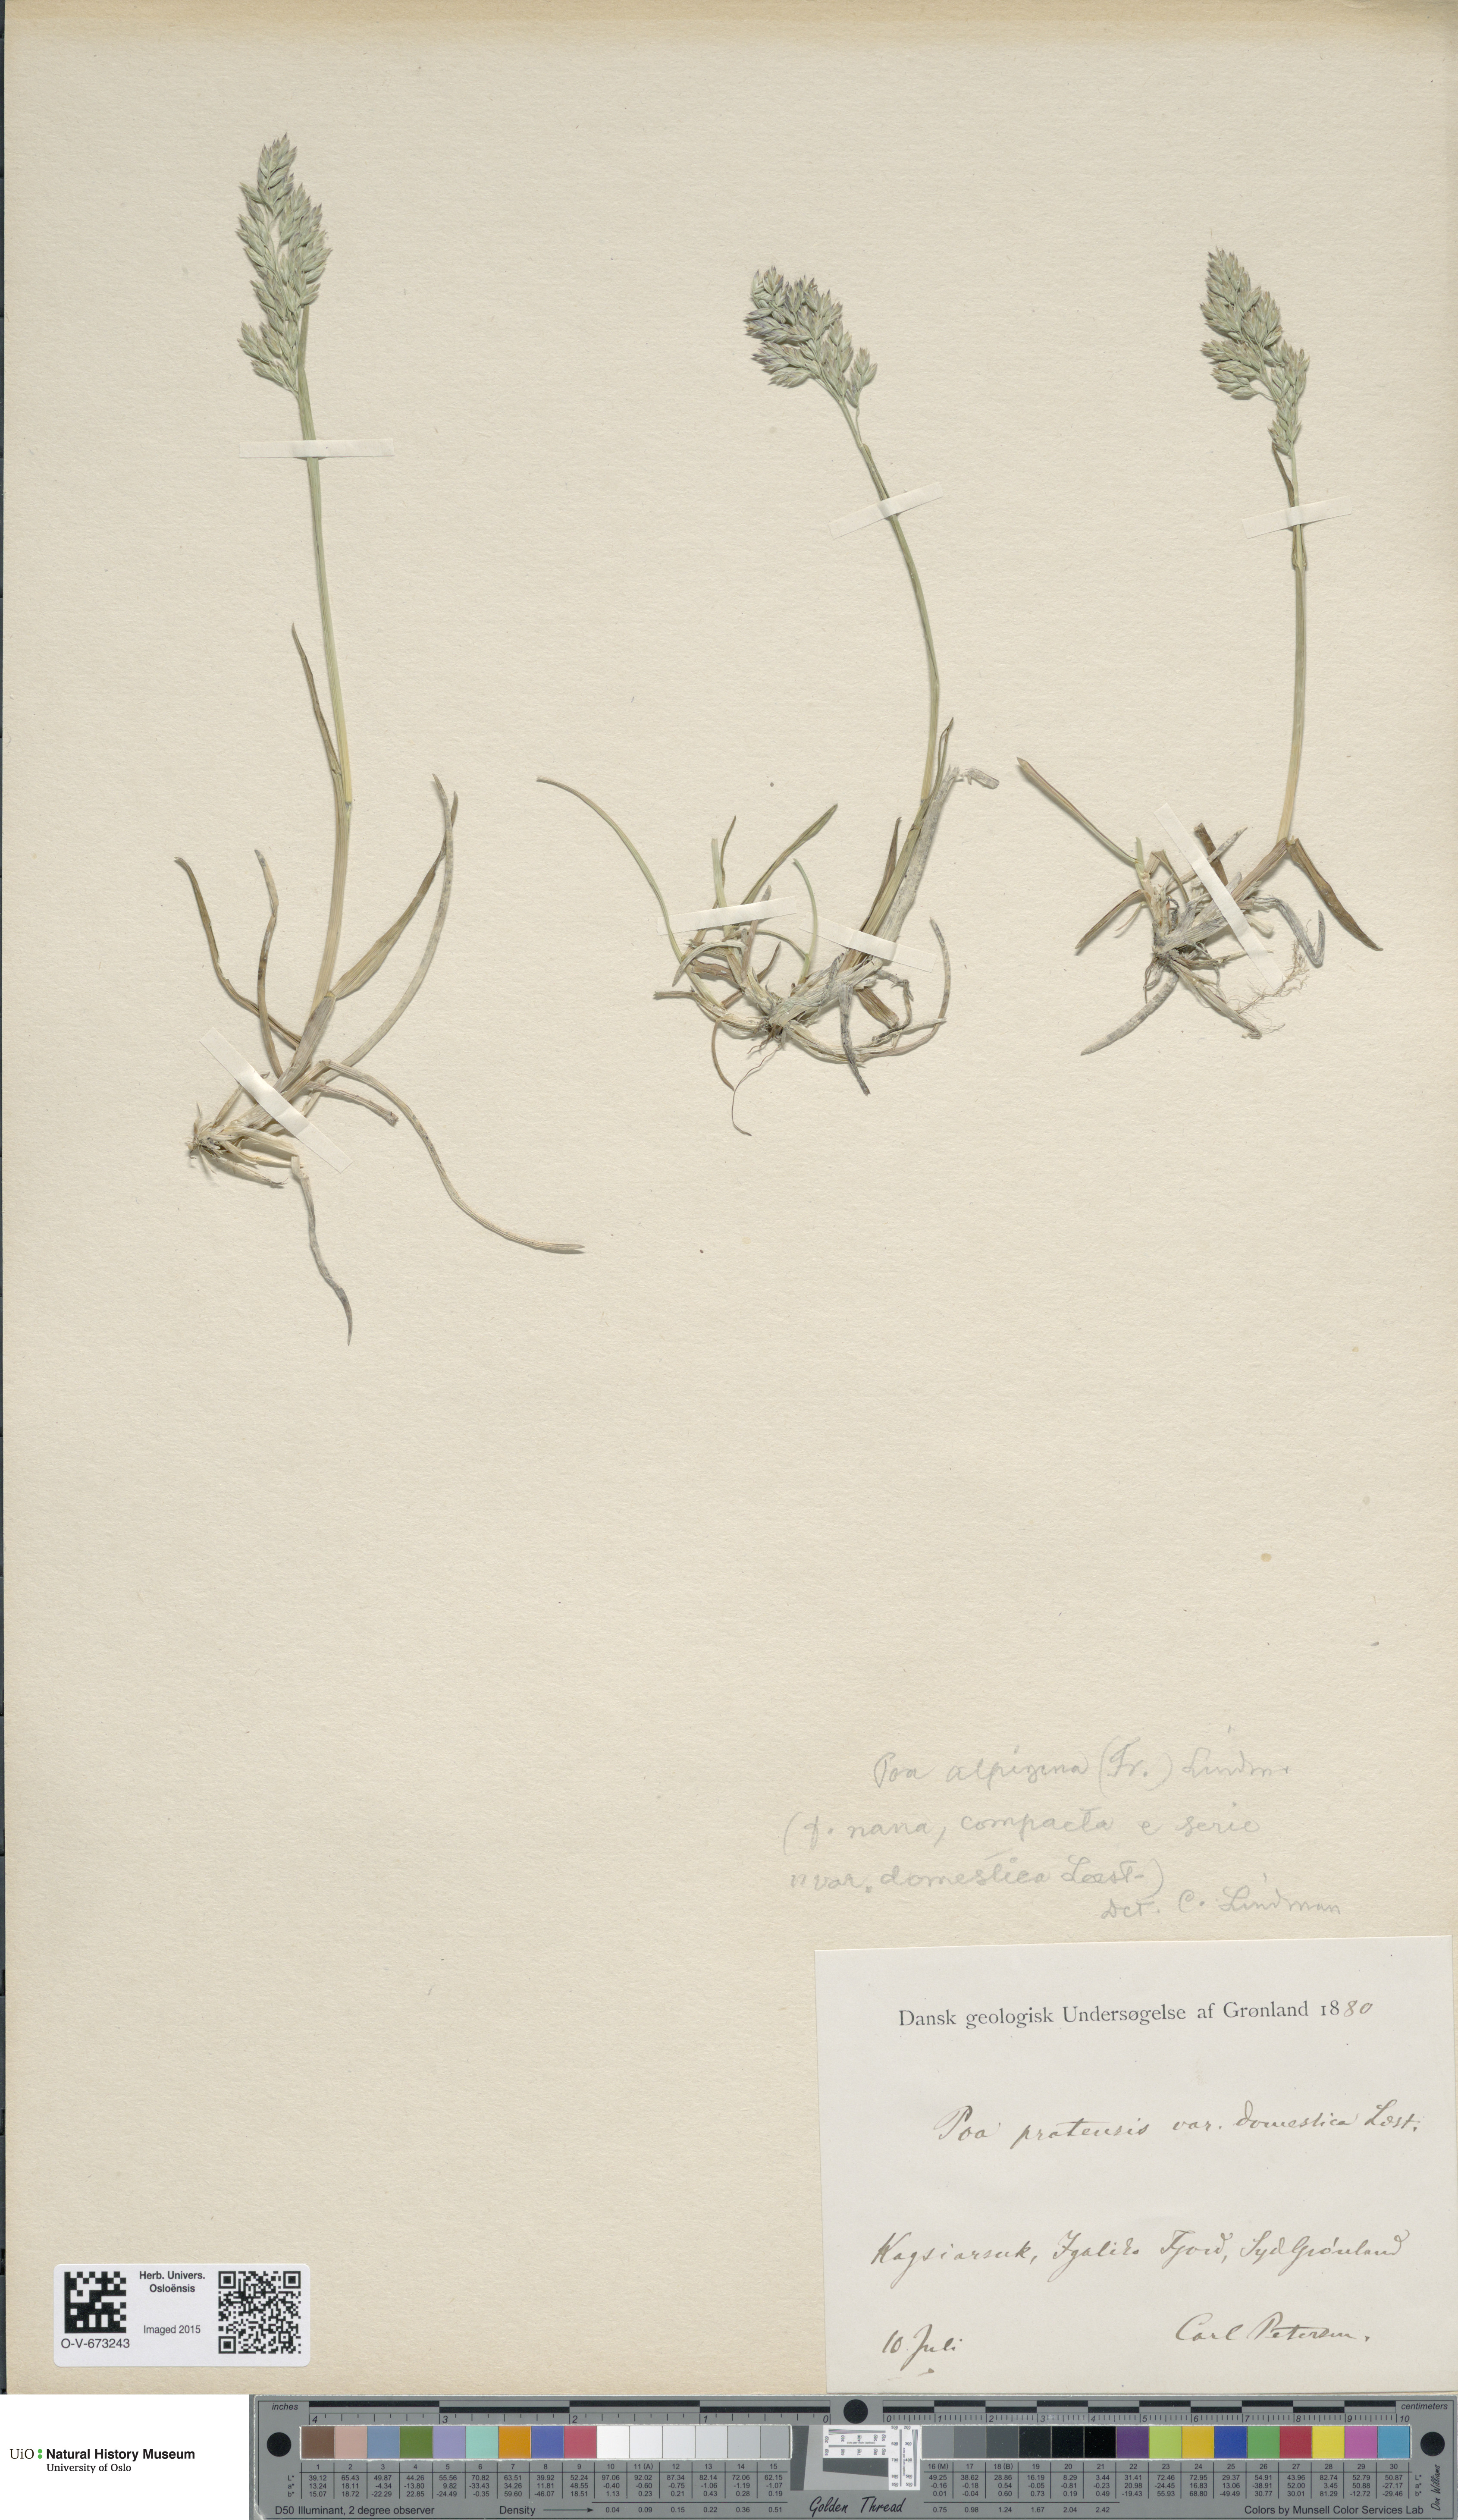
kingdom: Plantae
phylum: Tracheophyta
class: Liliopsida
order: Poales
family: Poaceae
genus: Poa
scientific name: Poa alpigena
